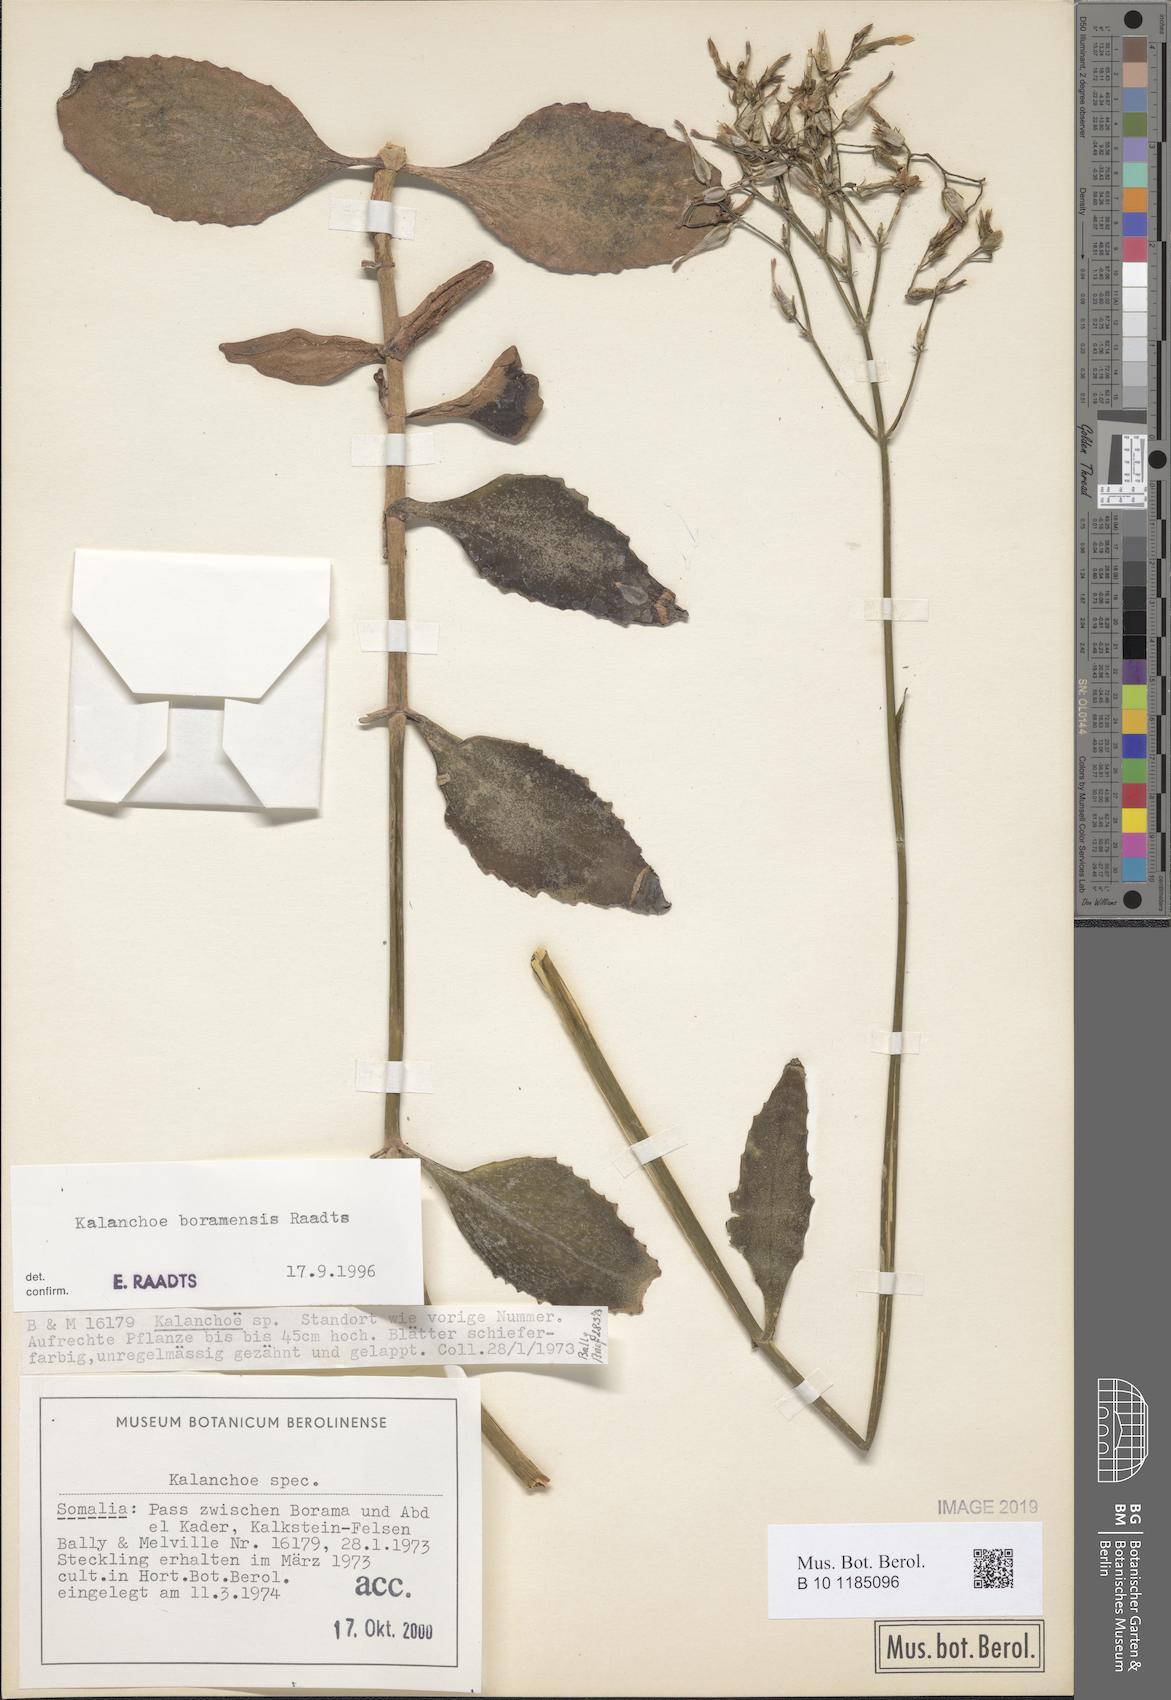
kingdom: Plantae
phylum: Tracheophyta
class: Magnoliopsida
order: Saxifragales
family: Crassulaceae
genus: Kalanchoe
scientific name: Kalanchoe
